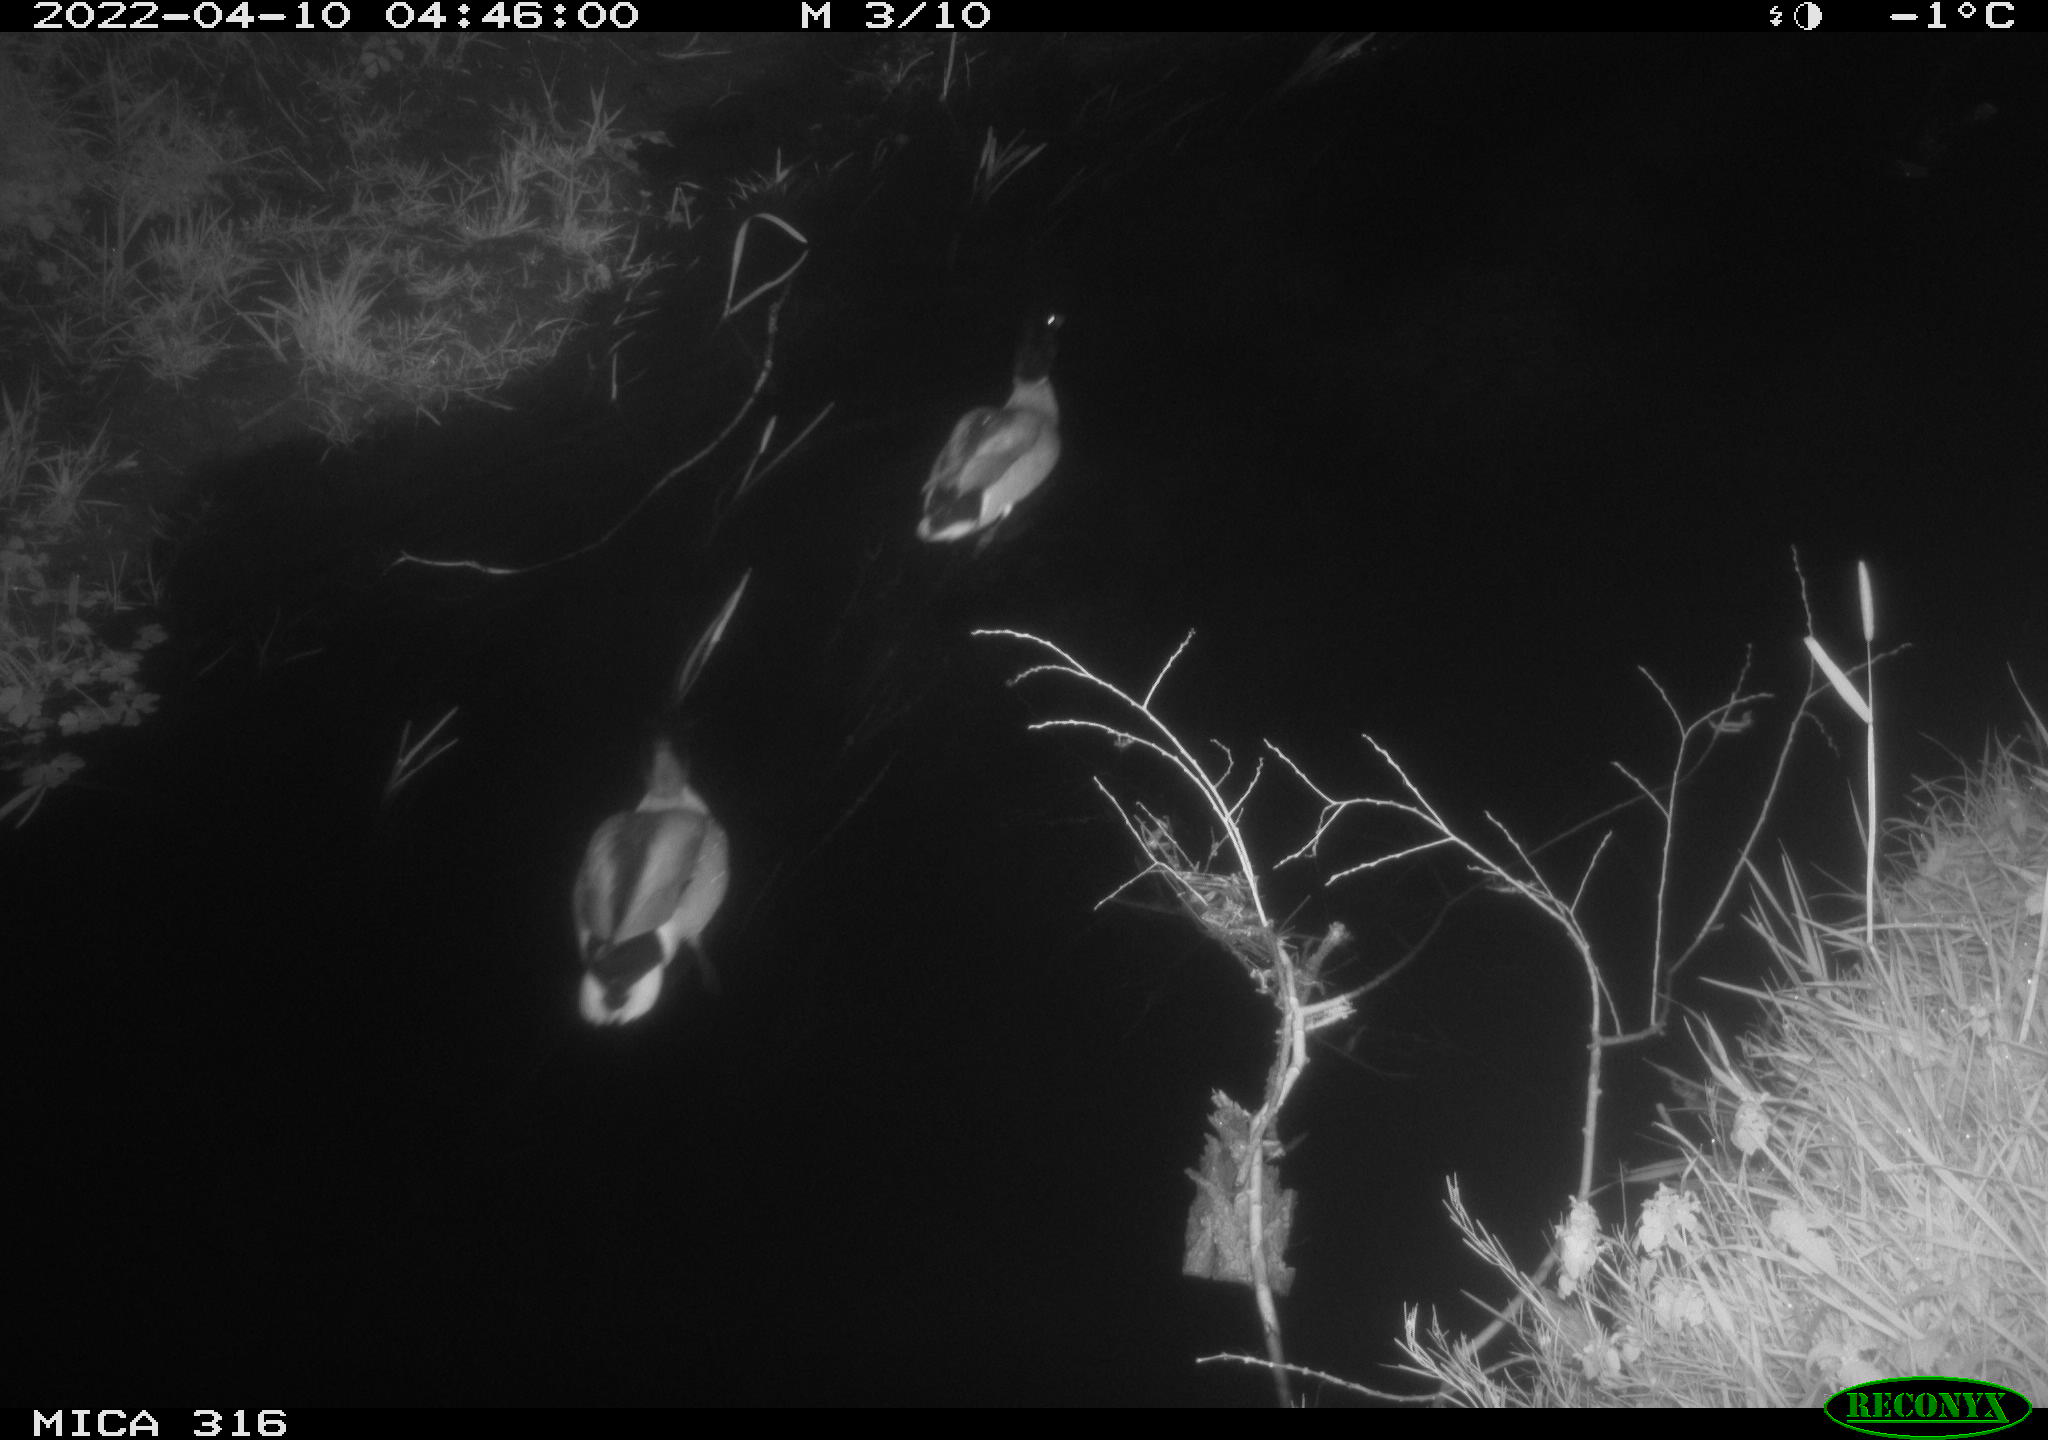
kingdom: Animalia
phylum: Chordata
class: Aves
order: Anseriformes
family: Anatidae
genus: Anas
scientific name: Anas platyrhynchos
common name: Mallard
